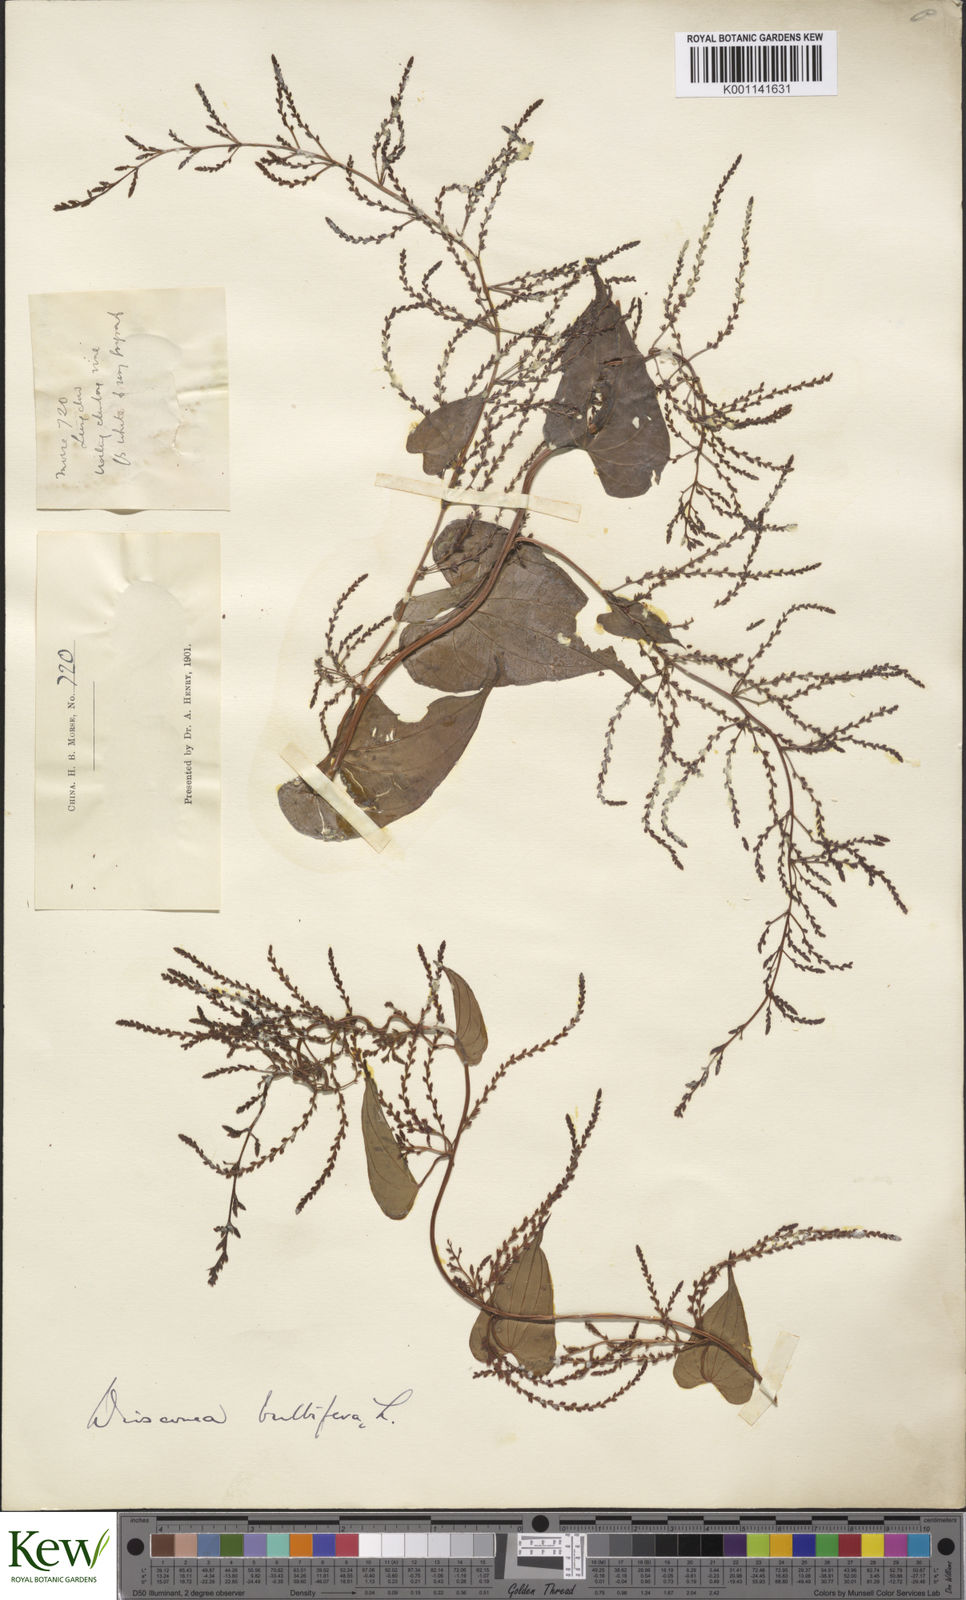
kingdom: Plantae
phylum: Tracheophyta
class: Liliopsida
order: Dioscoreales
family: Dioscoreaceae
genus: Dioscorea
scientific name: Dioscorea bulbifera
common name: Air yam
